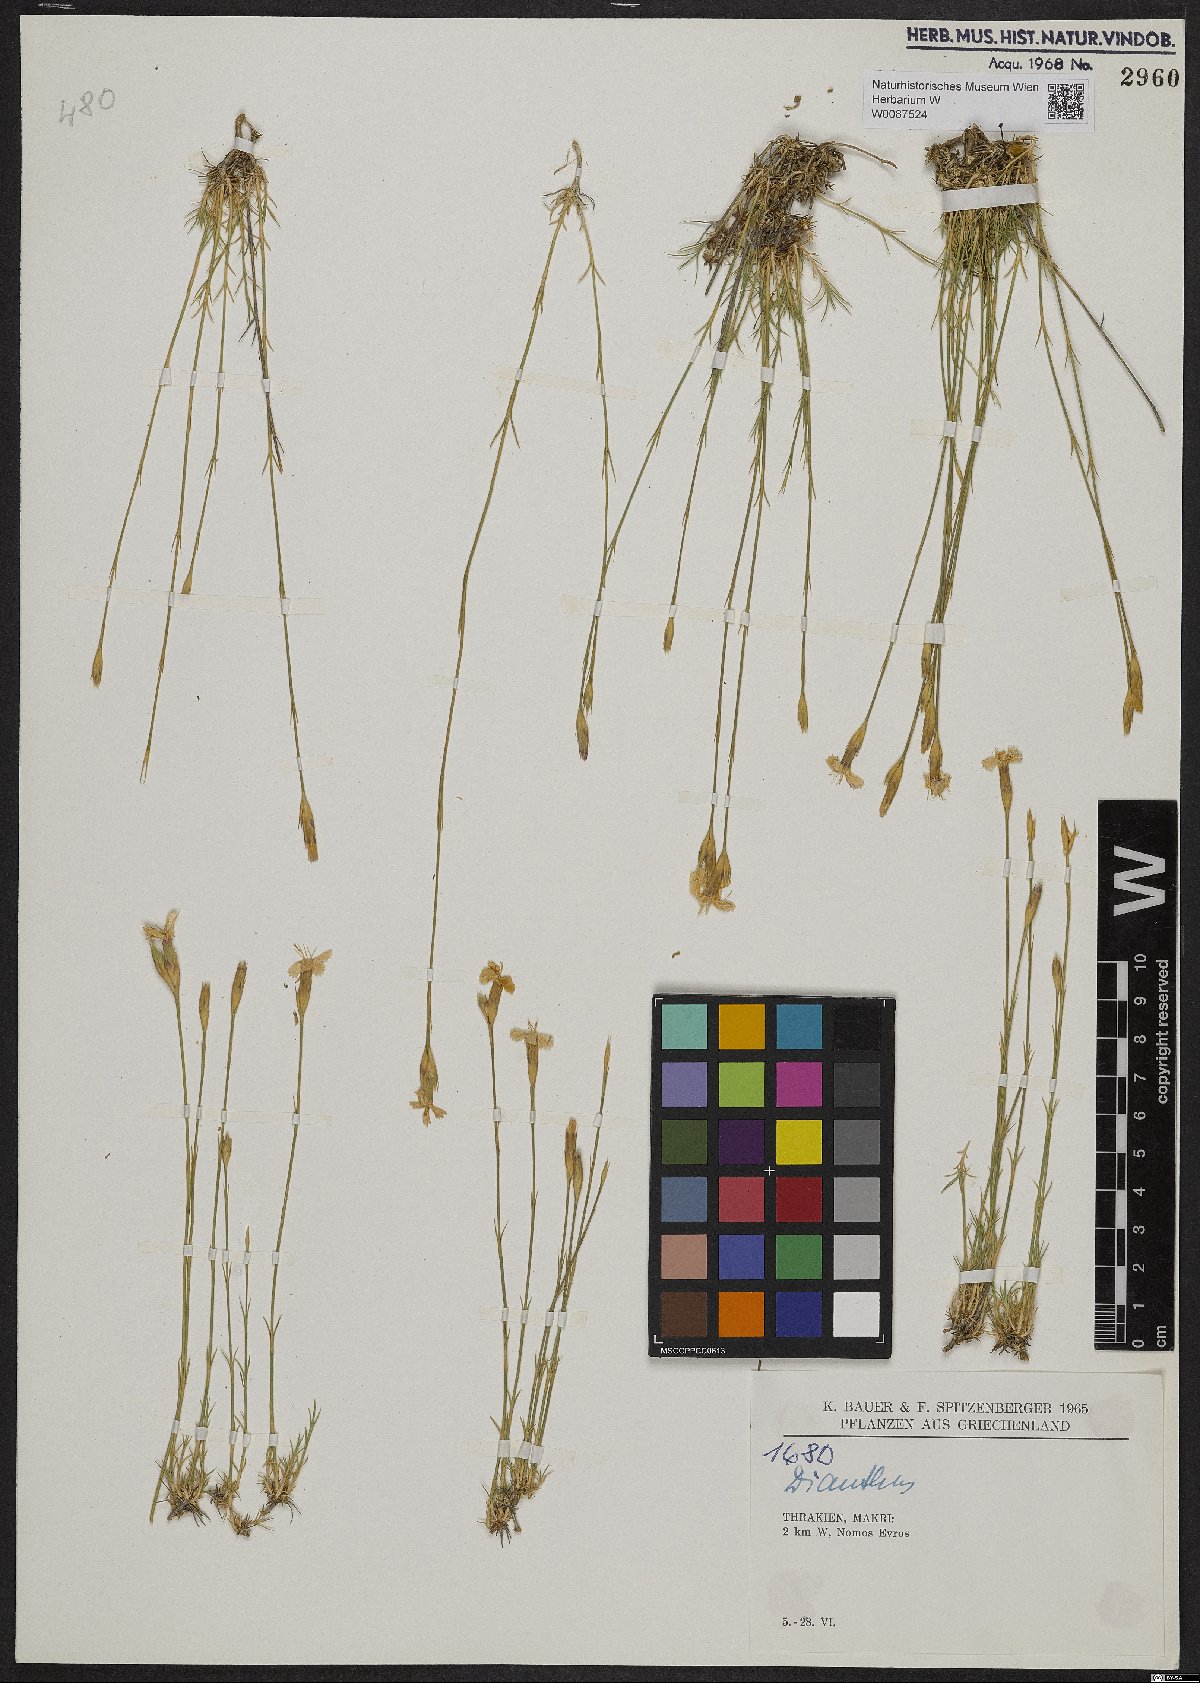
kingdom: Plantae
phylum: Tracheophyta
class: Magnoliopsida
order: Caryophyllales
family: Caryophyllaceae
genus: Dianthus
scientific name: Dianthus
